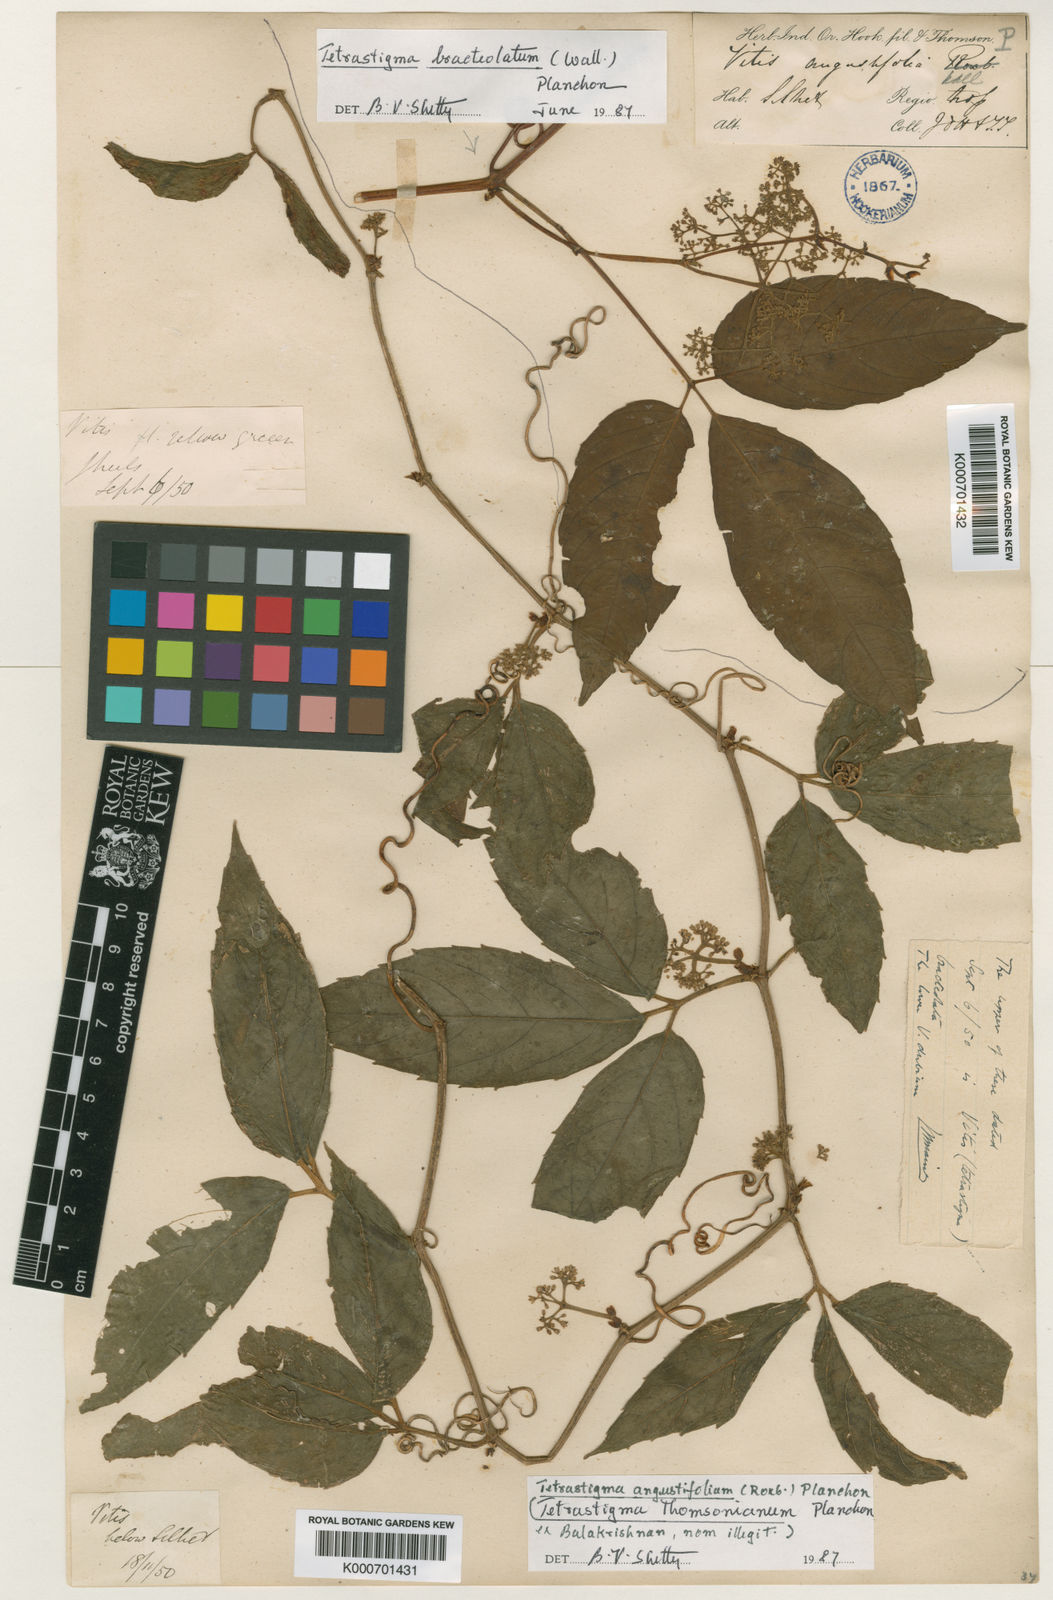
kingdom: Plantae
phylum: Tracheophyta
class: Magnoliopsida
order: Vitales
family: Vitaceae
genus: Tetrastigma
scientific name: Tetrastigma thomsonianum
